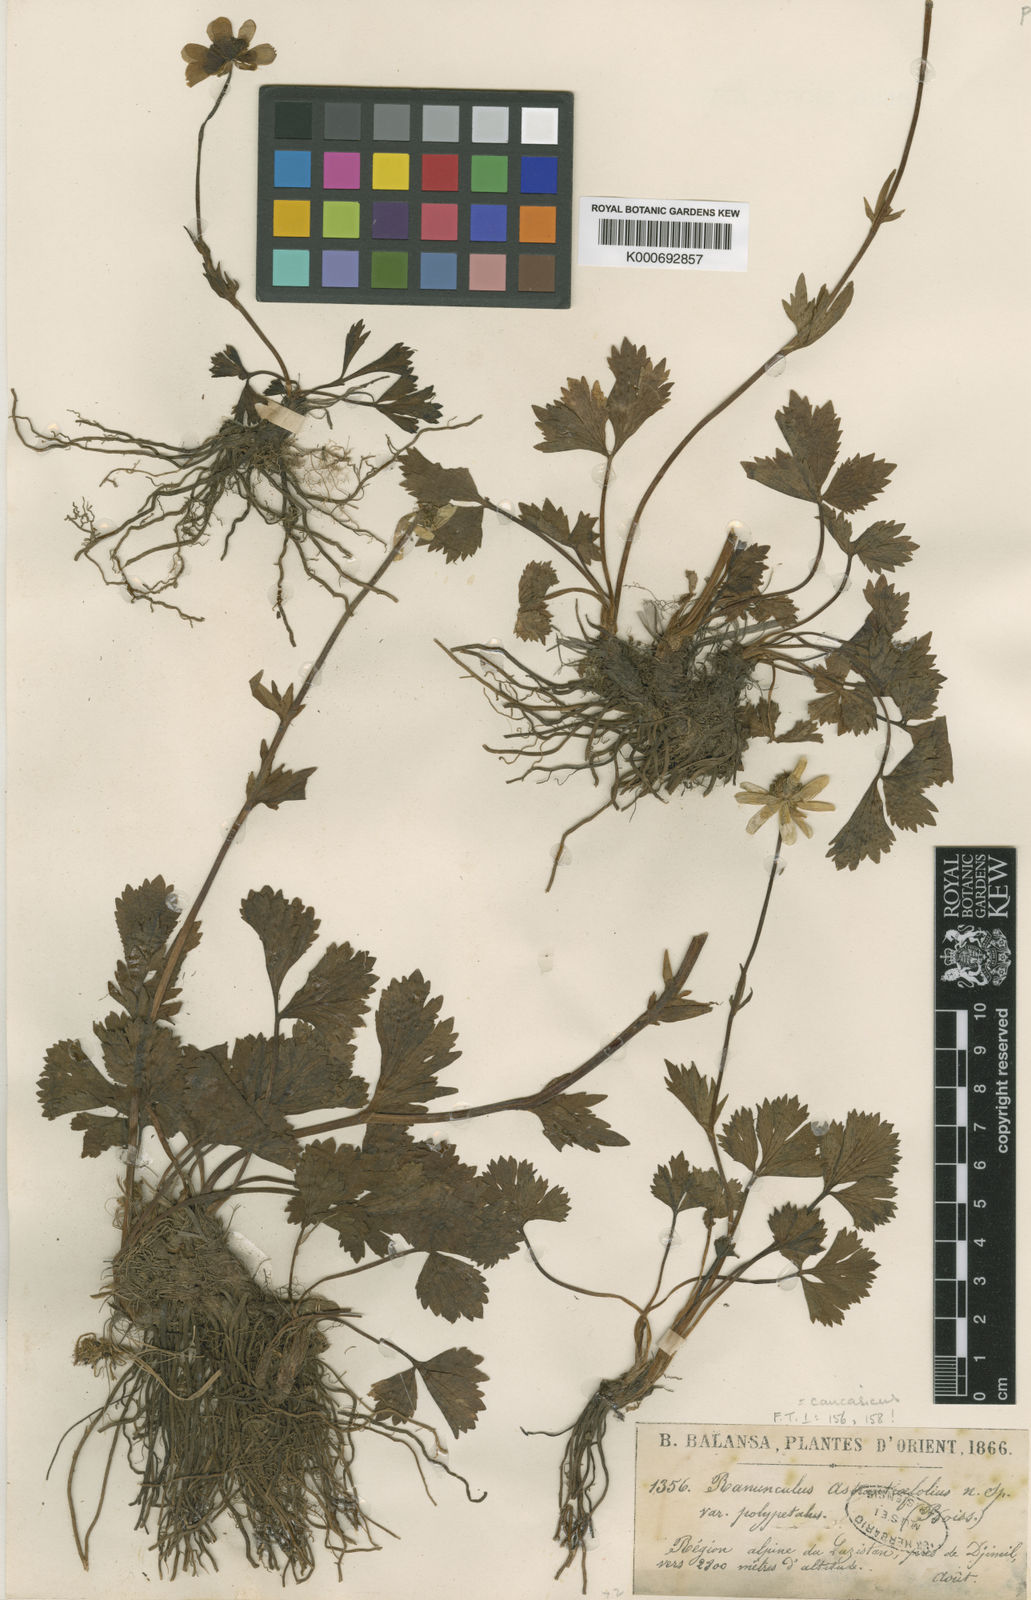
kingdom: Plantae
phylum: Tracheophyta
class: Magnoliopsida
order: Ranunculales
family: Ranunculaceae
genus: Ranunculus
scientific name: Ranunculus buhsei
